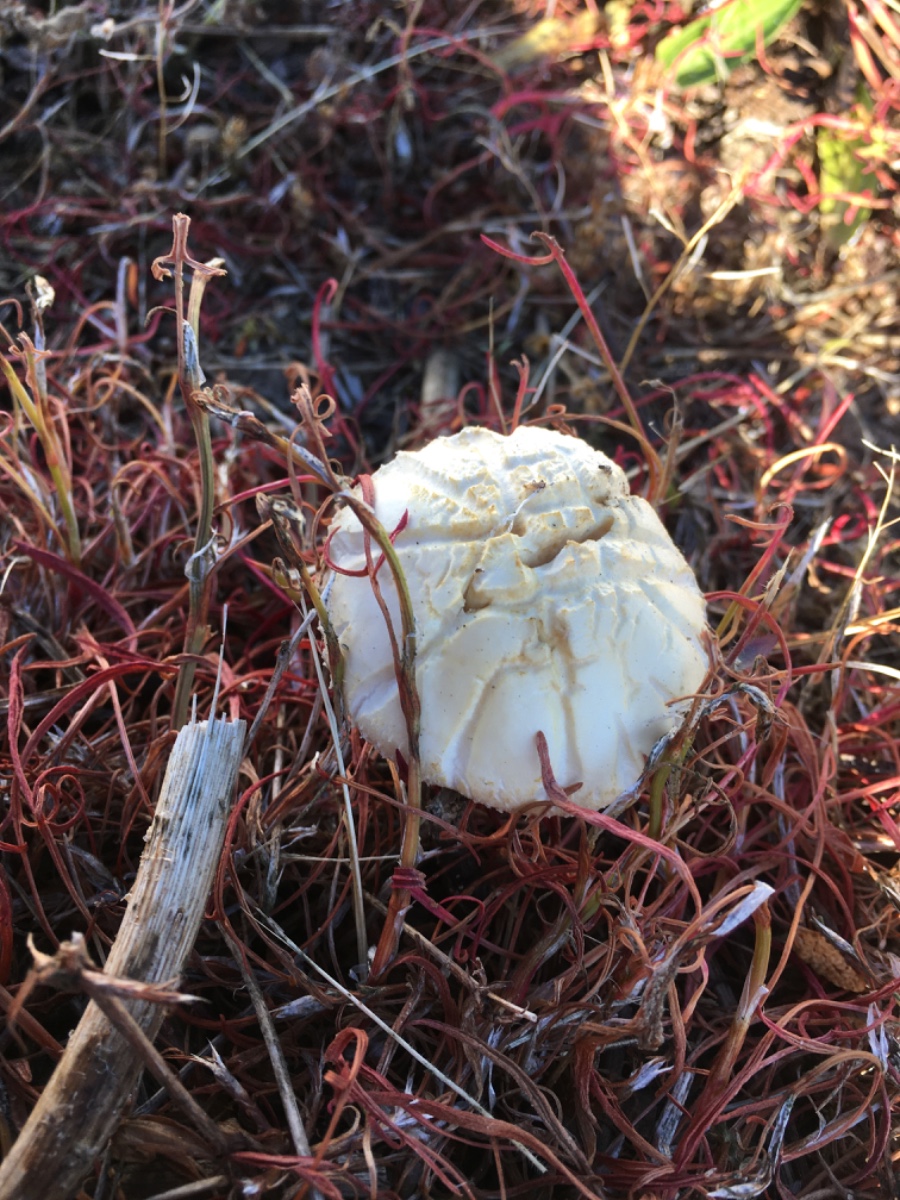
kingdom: Fungi
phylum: Basidiomycota
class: Agaricomycetes
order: Agaricales
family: Strophariaceae
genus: Agrocybe
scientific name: Agrocybe praecox
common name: tidlig agerhat
